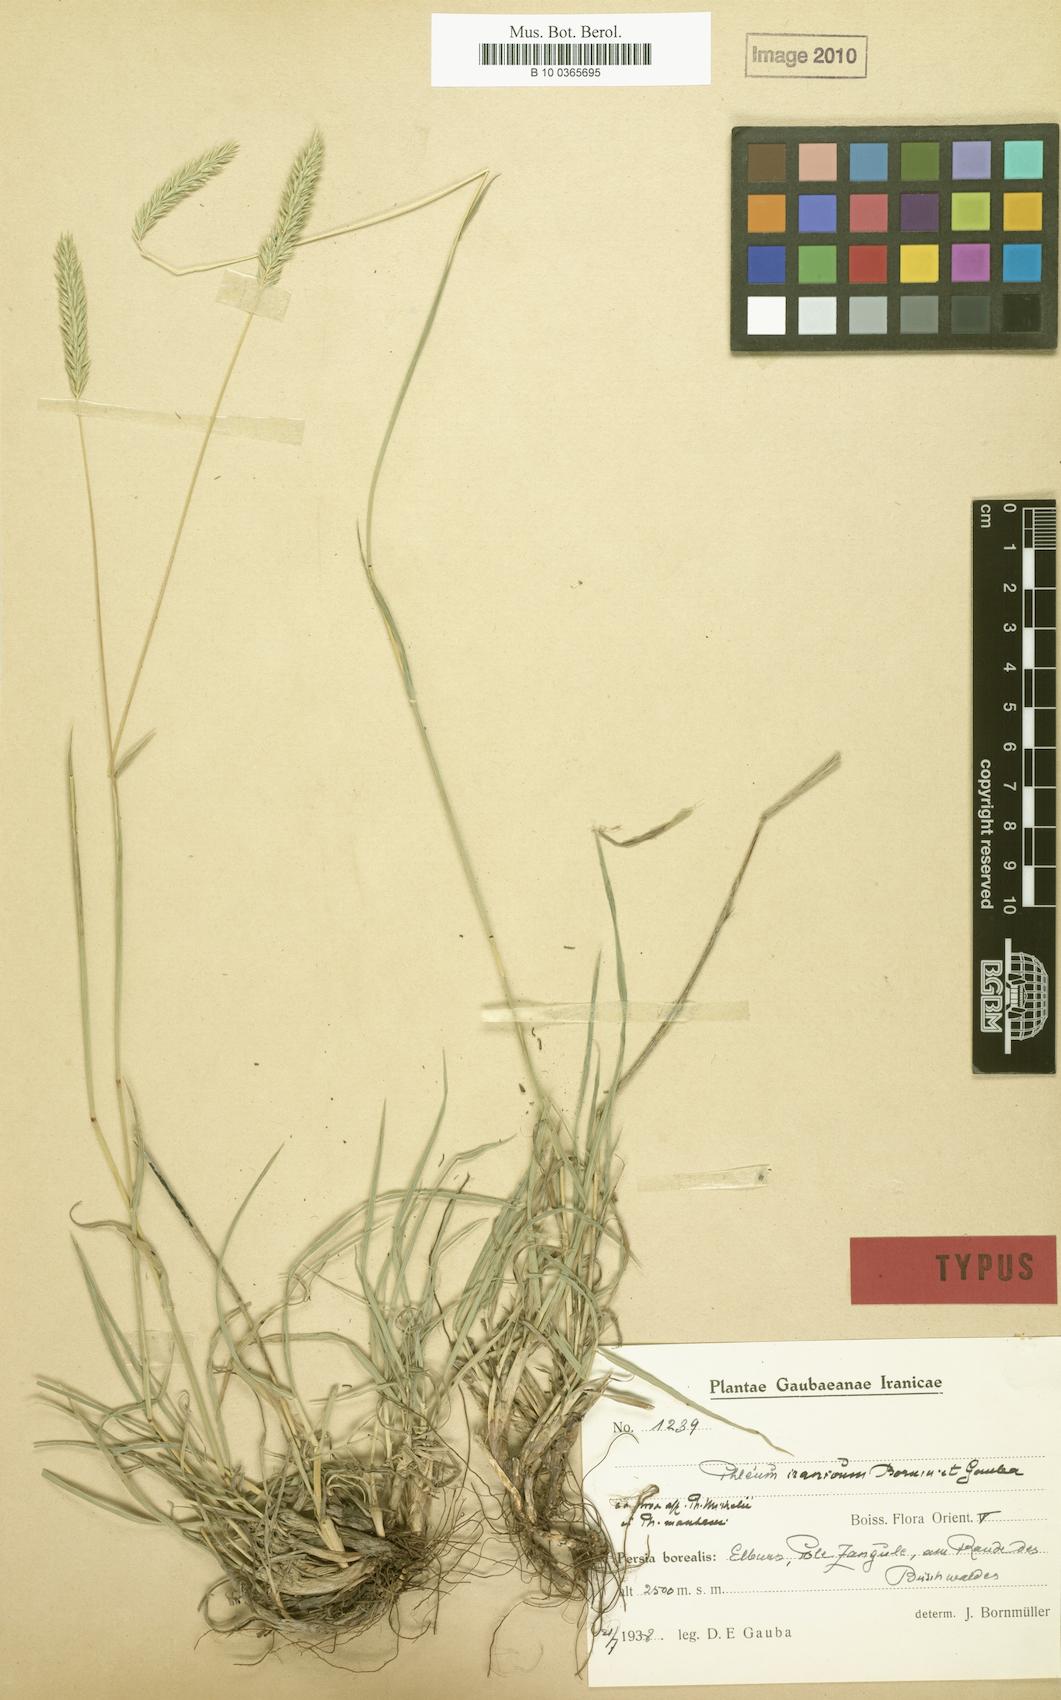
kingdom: Plantae
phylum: Tracheophyta
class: Liliopsida
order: Poales
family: Poaceae
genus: Phleum
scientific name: Phleum iranicum
